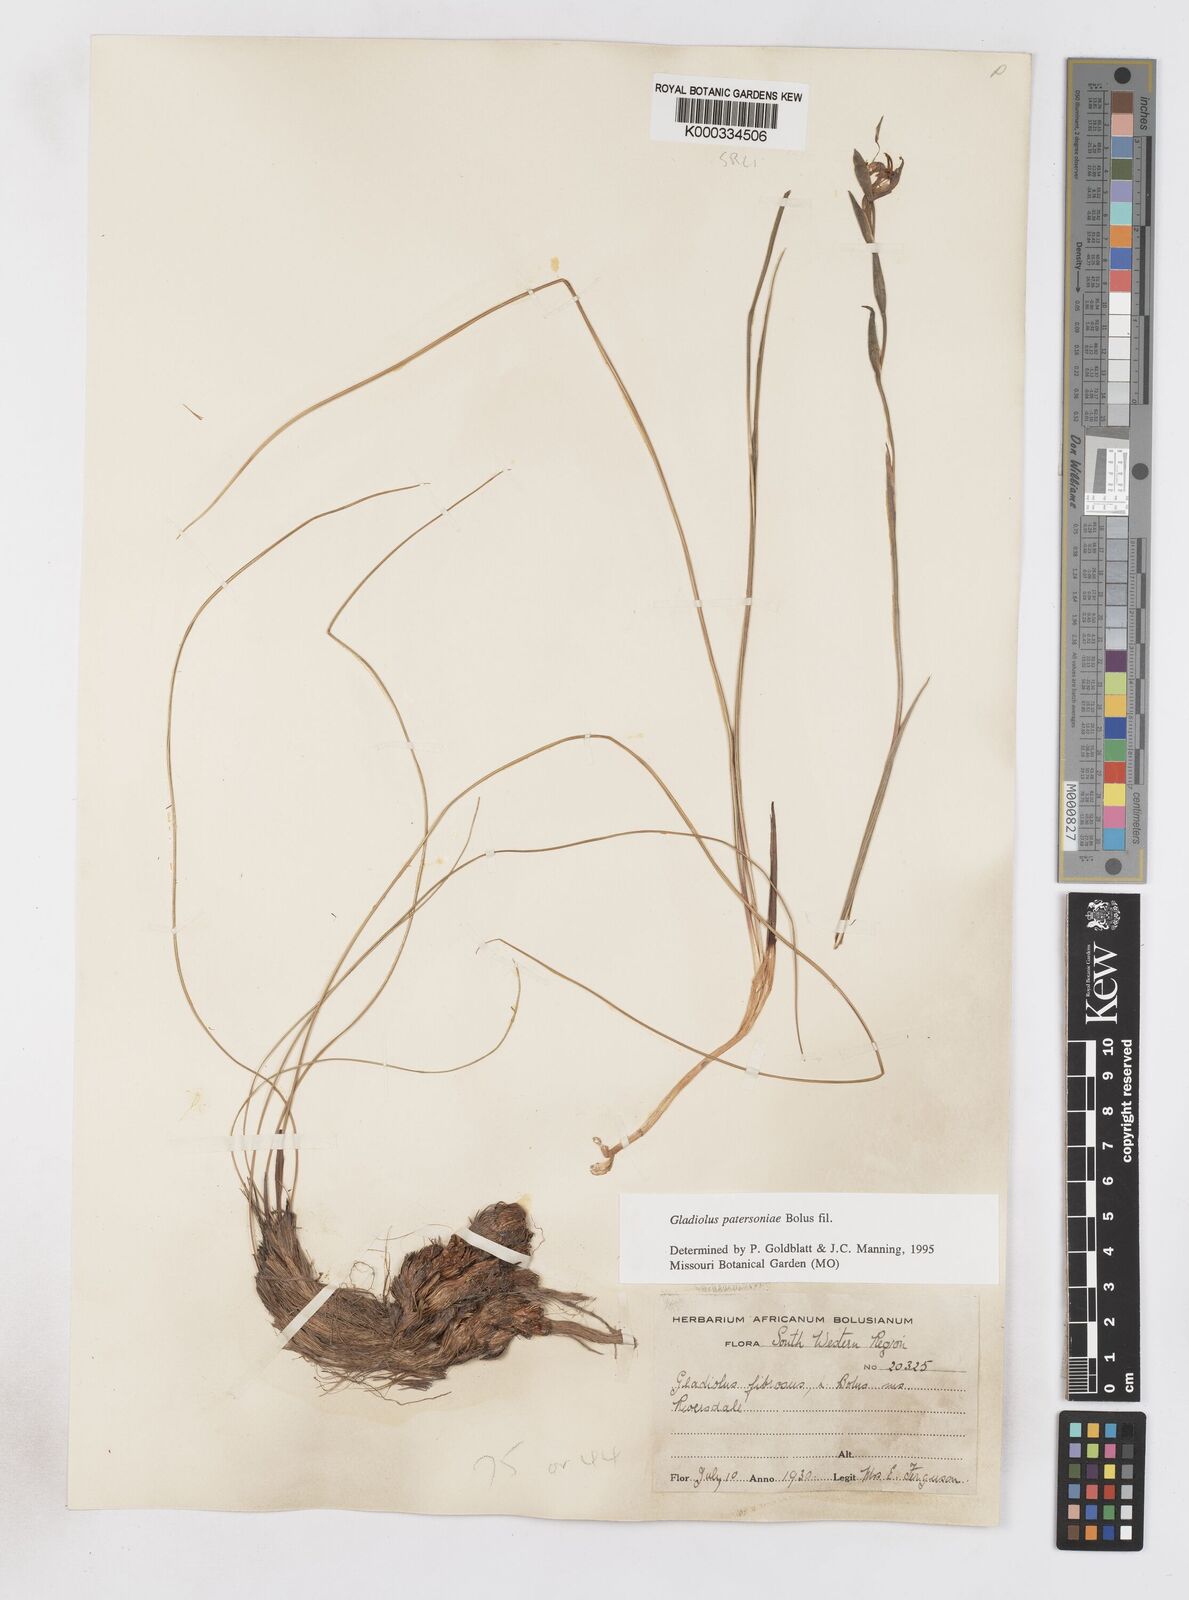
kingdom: Plantae
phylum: Tracheophyta
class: Liliopsida
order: Asparagales
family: Iridaceae
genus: Gladiolus
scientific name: Gladiolus patersoniae
